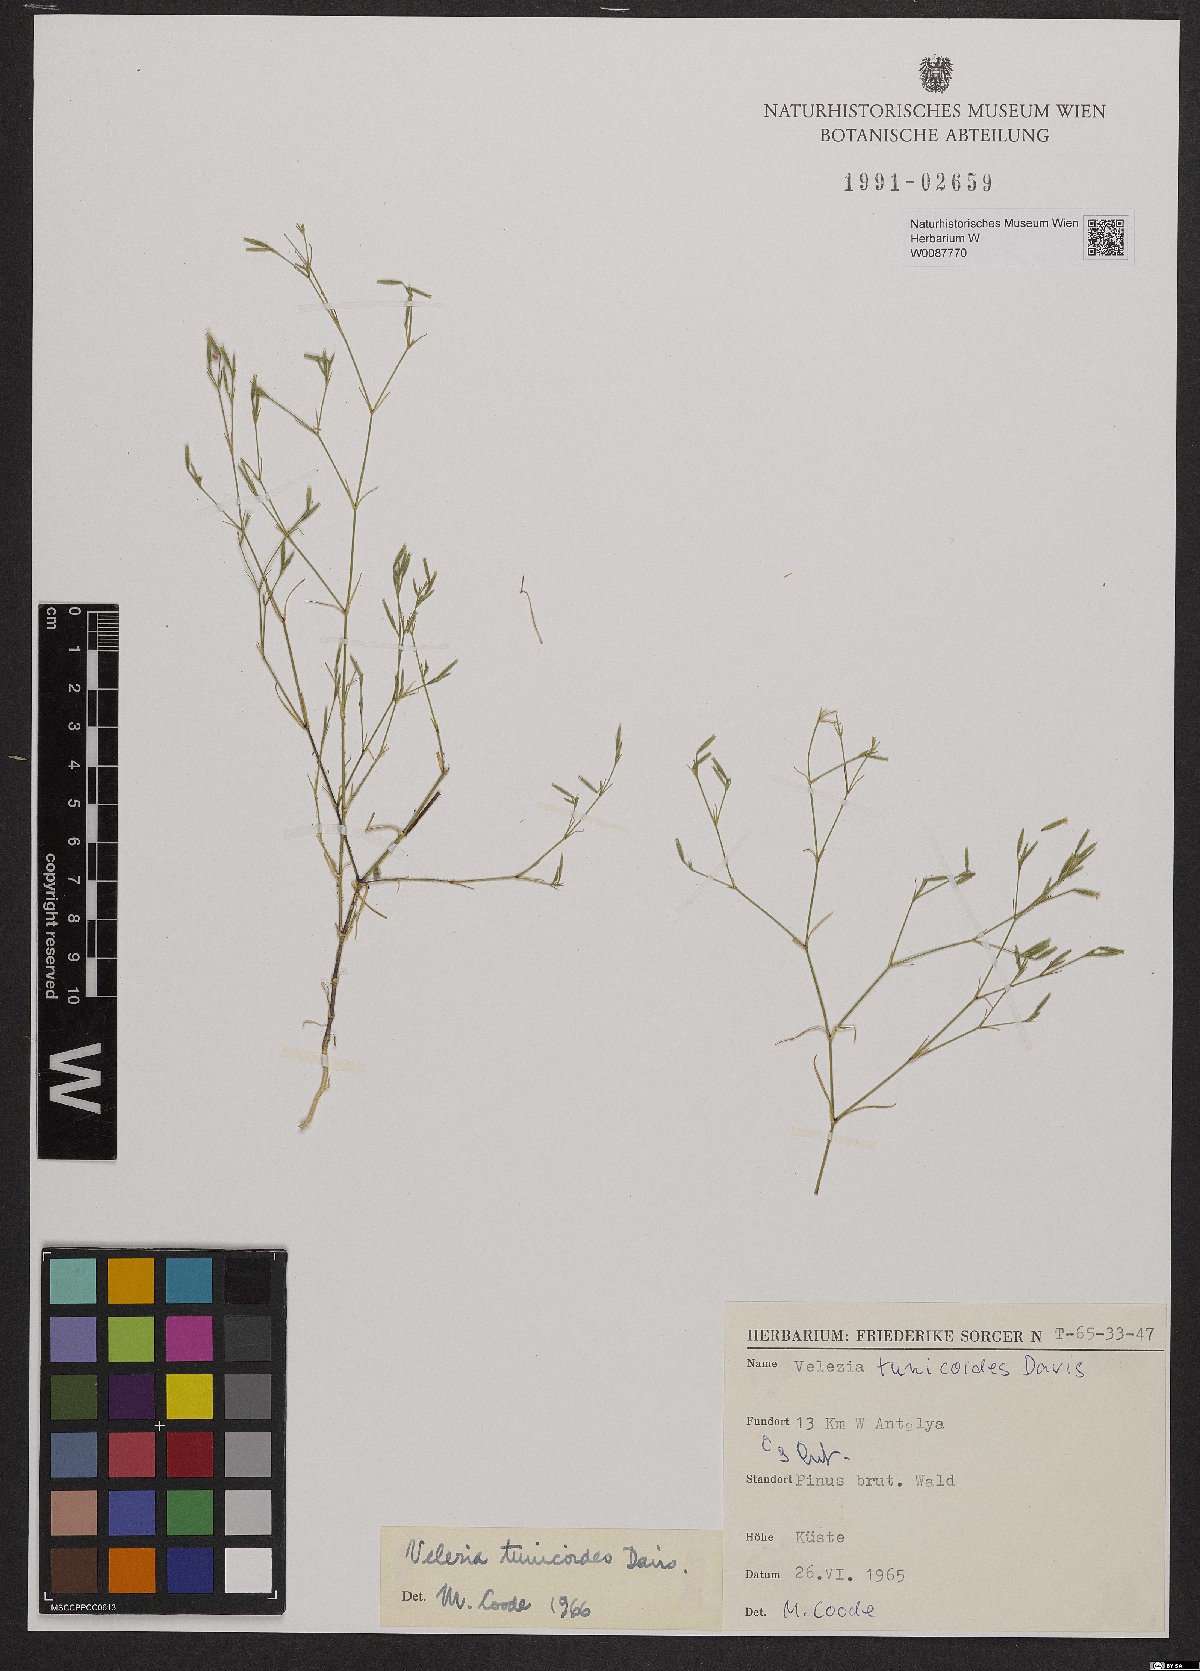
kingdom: Plantae
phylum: Tracheophyta
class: Magnoliopsida
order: Caryophyllales
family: Caryophyllaceae
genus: Dianthus
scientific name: Dianthus antalyensis
